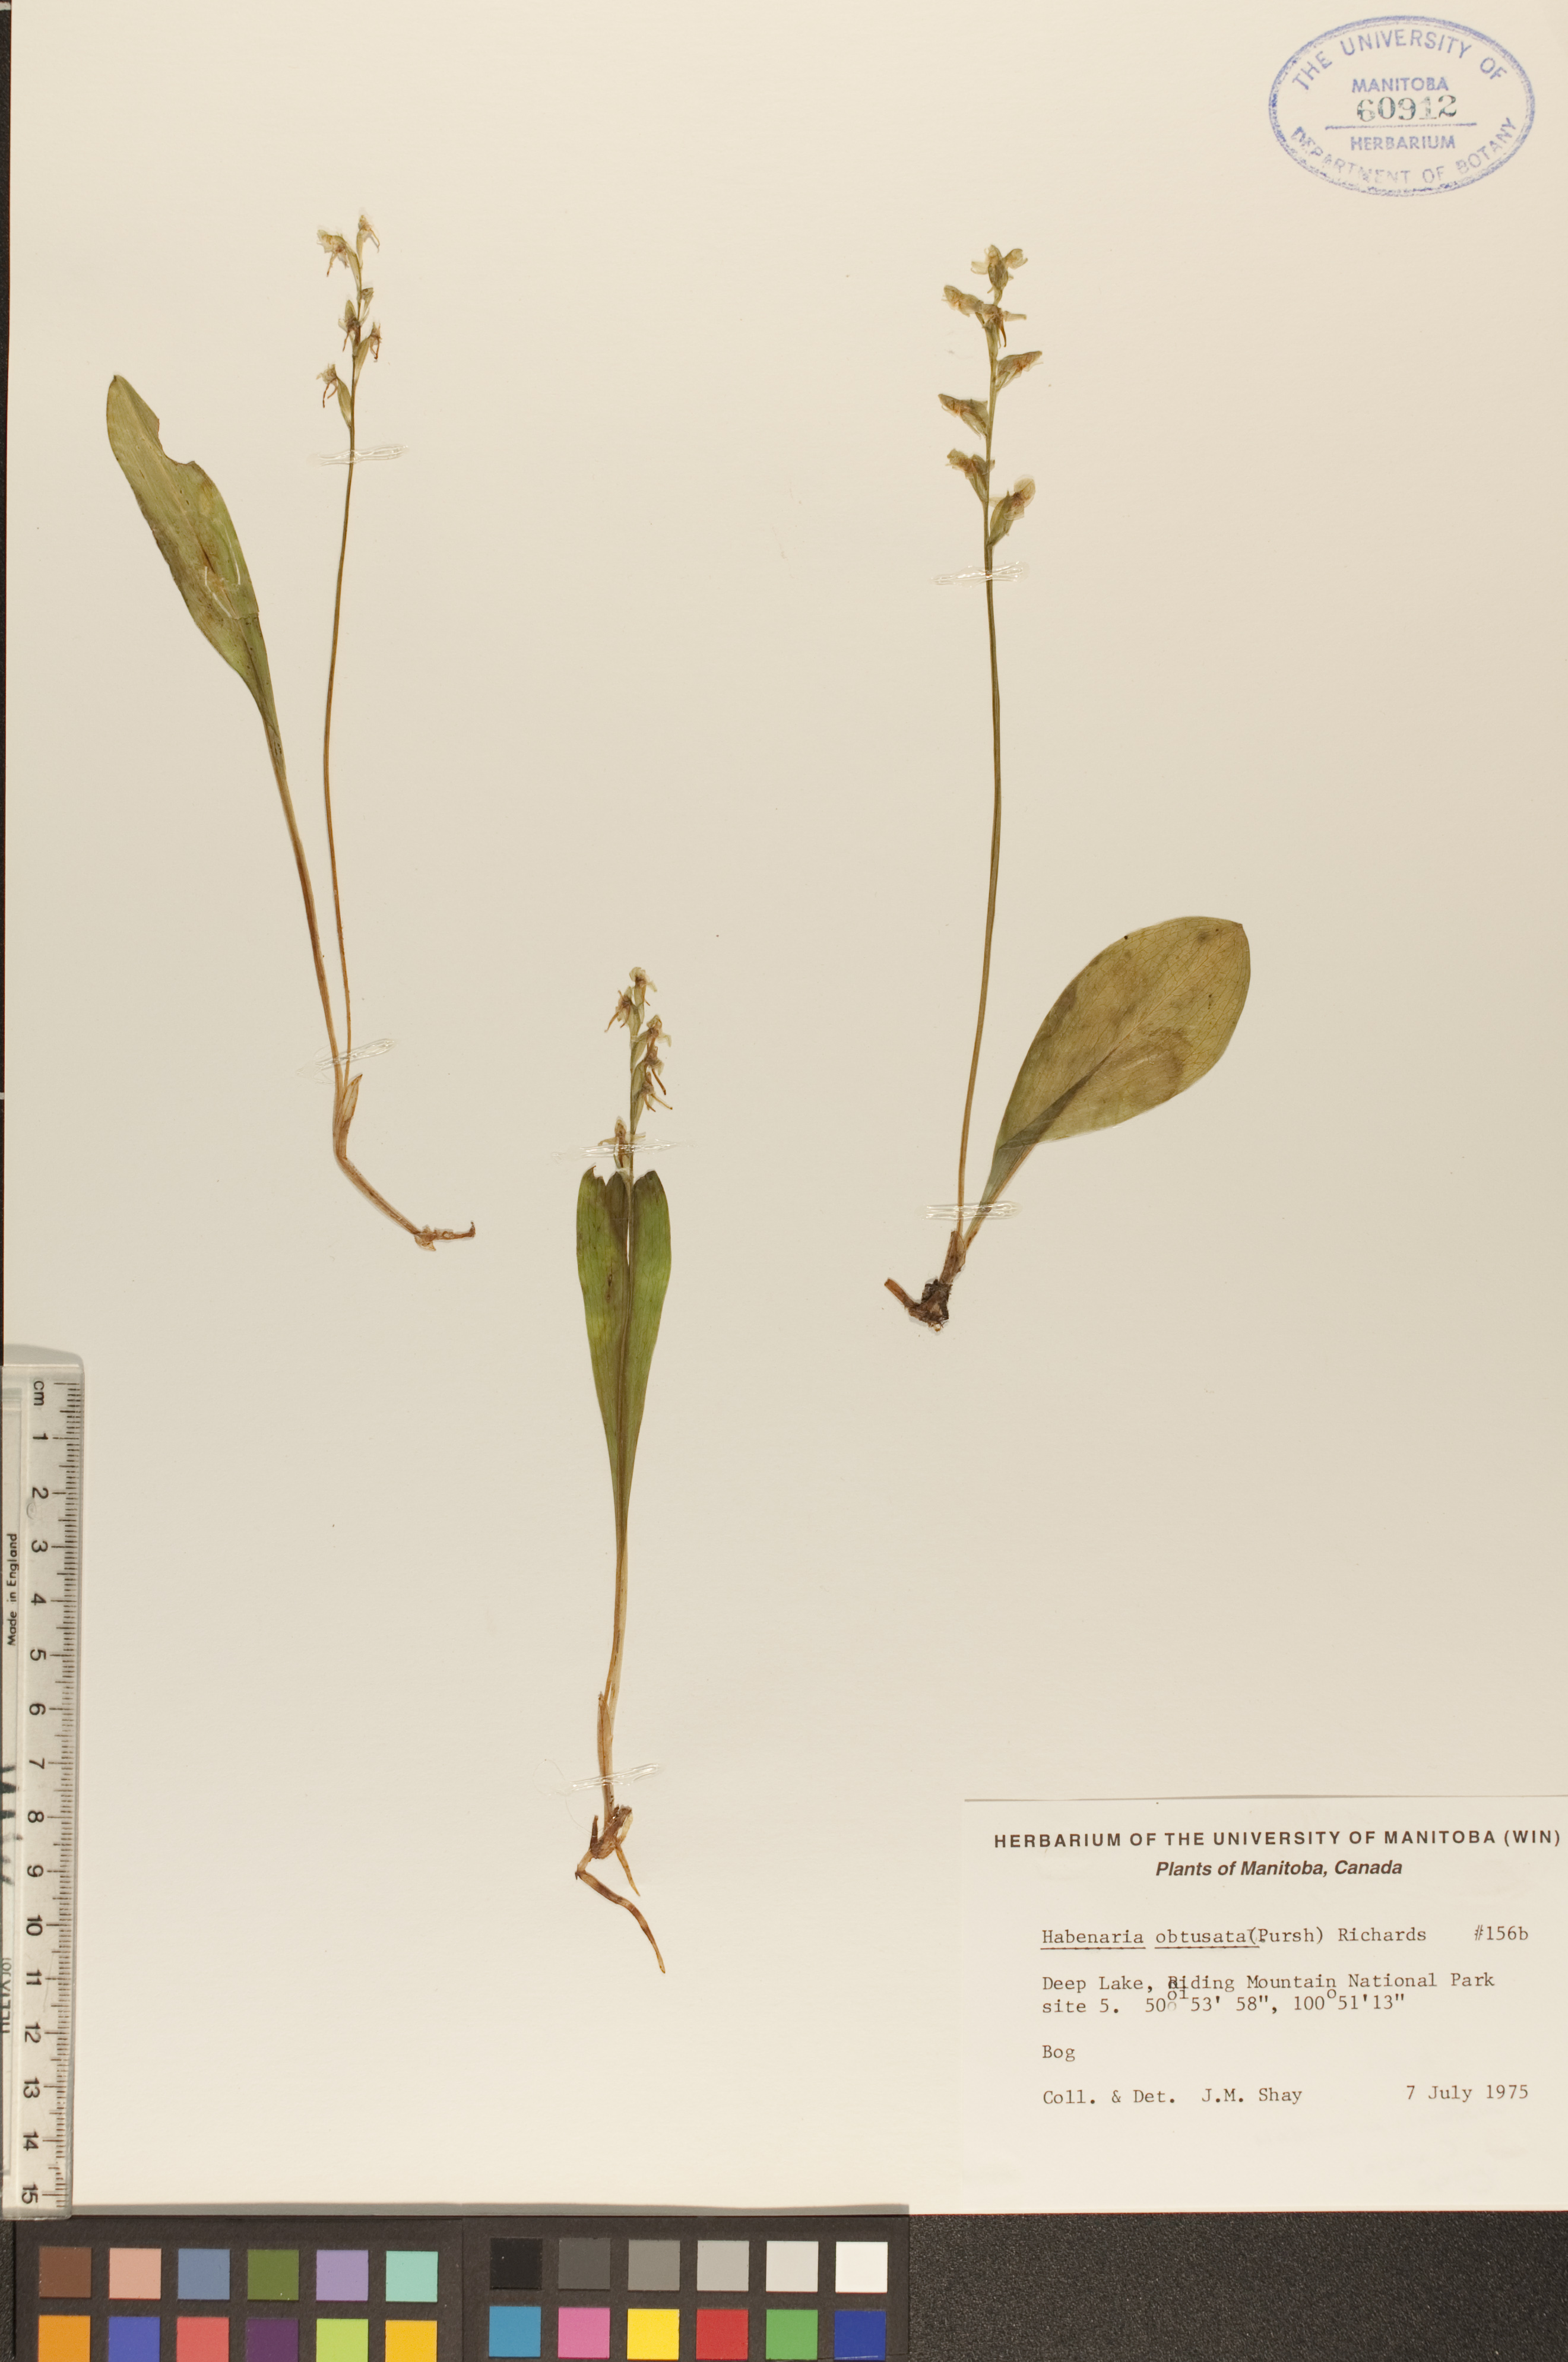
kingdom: Plantae
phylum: Tracheophyta
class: Liliopsida
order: Asparagales
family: Orchidaceae
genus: Platanthera
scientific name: Platanthera obtusata
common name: Blunt bog orchid
